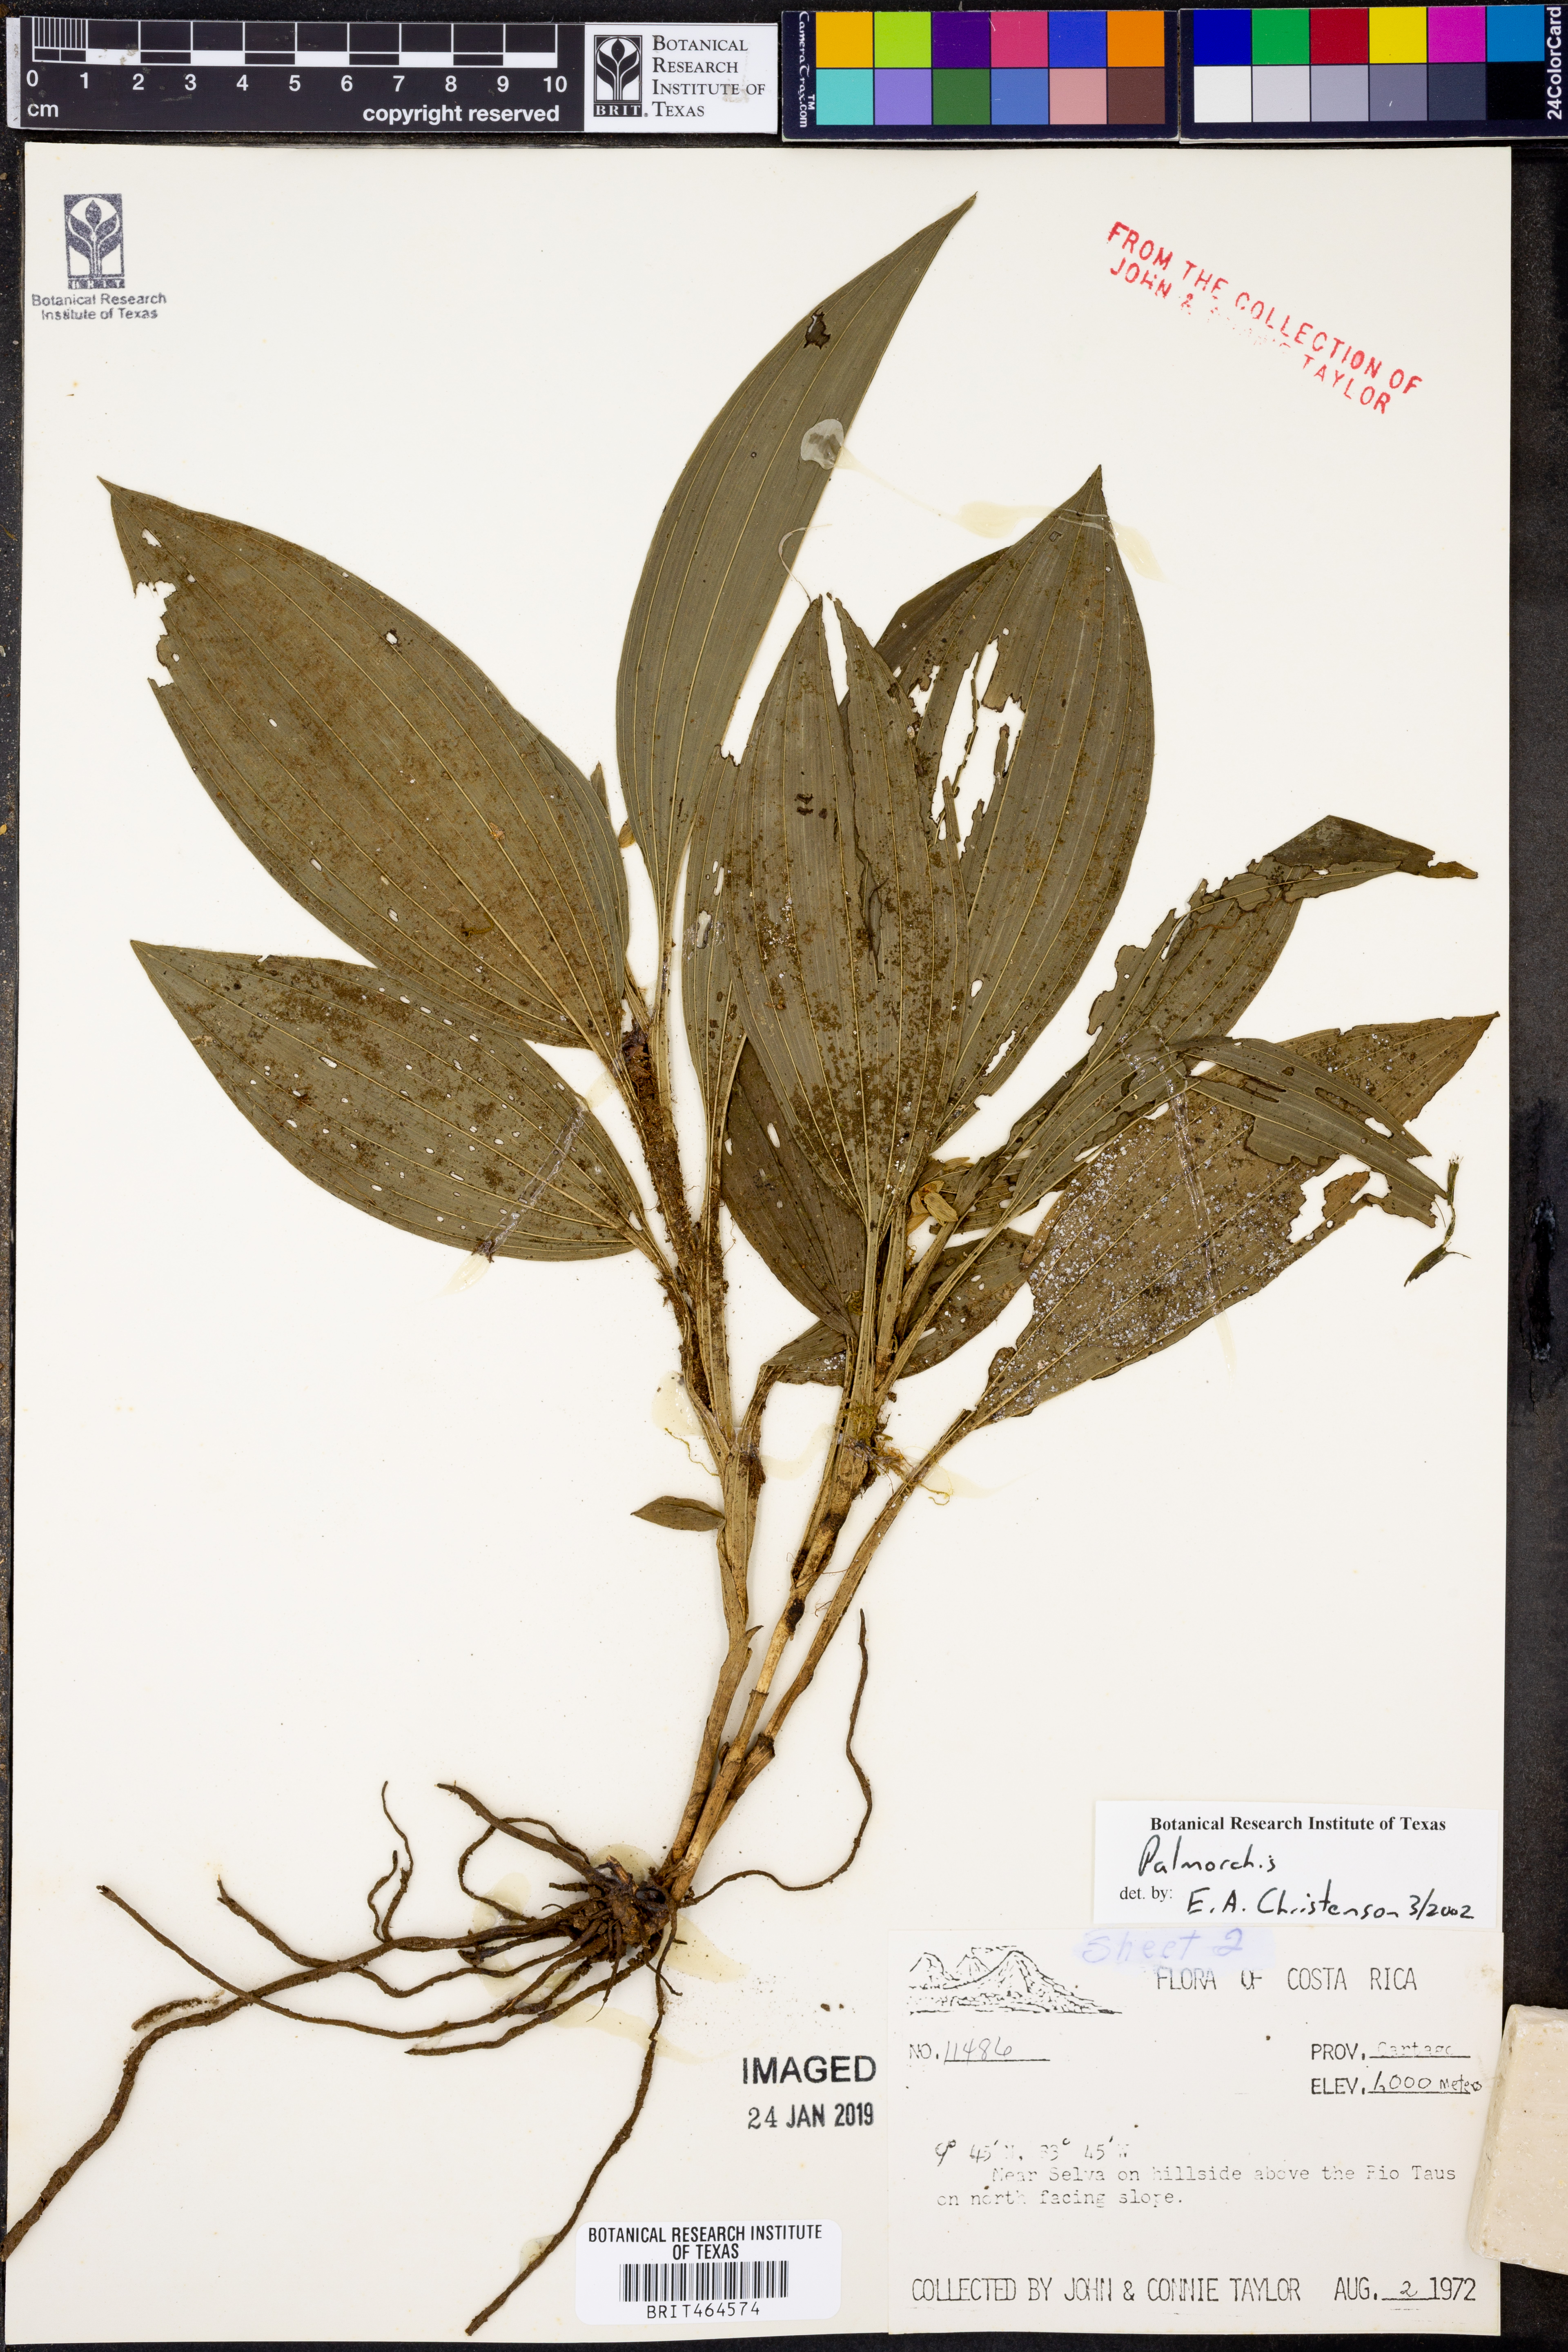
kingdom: Plantae
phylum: Tracheophyta
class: Liliopsida
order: Asparagales
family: Orchidaceae
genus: Palmorchis
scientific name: Palmorchis
